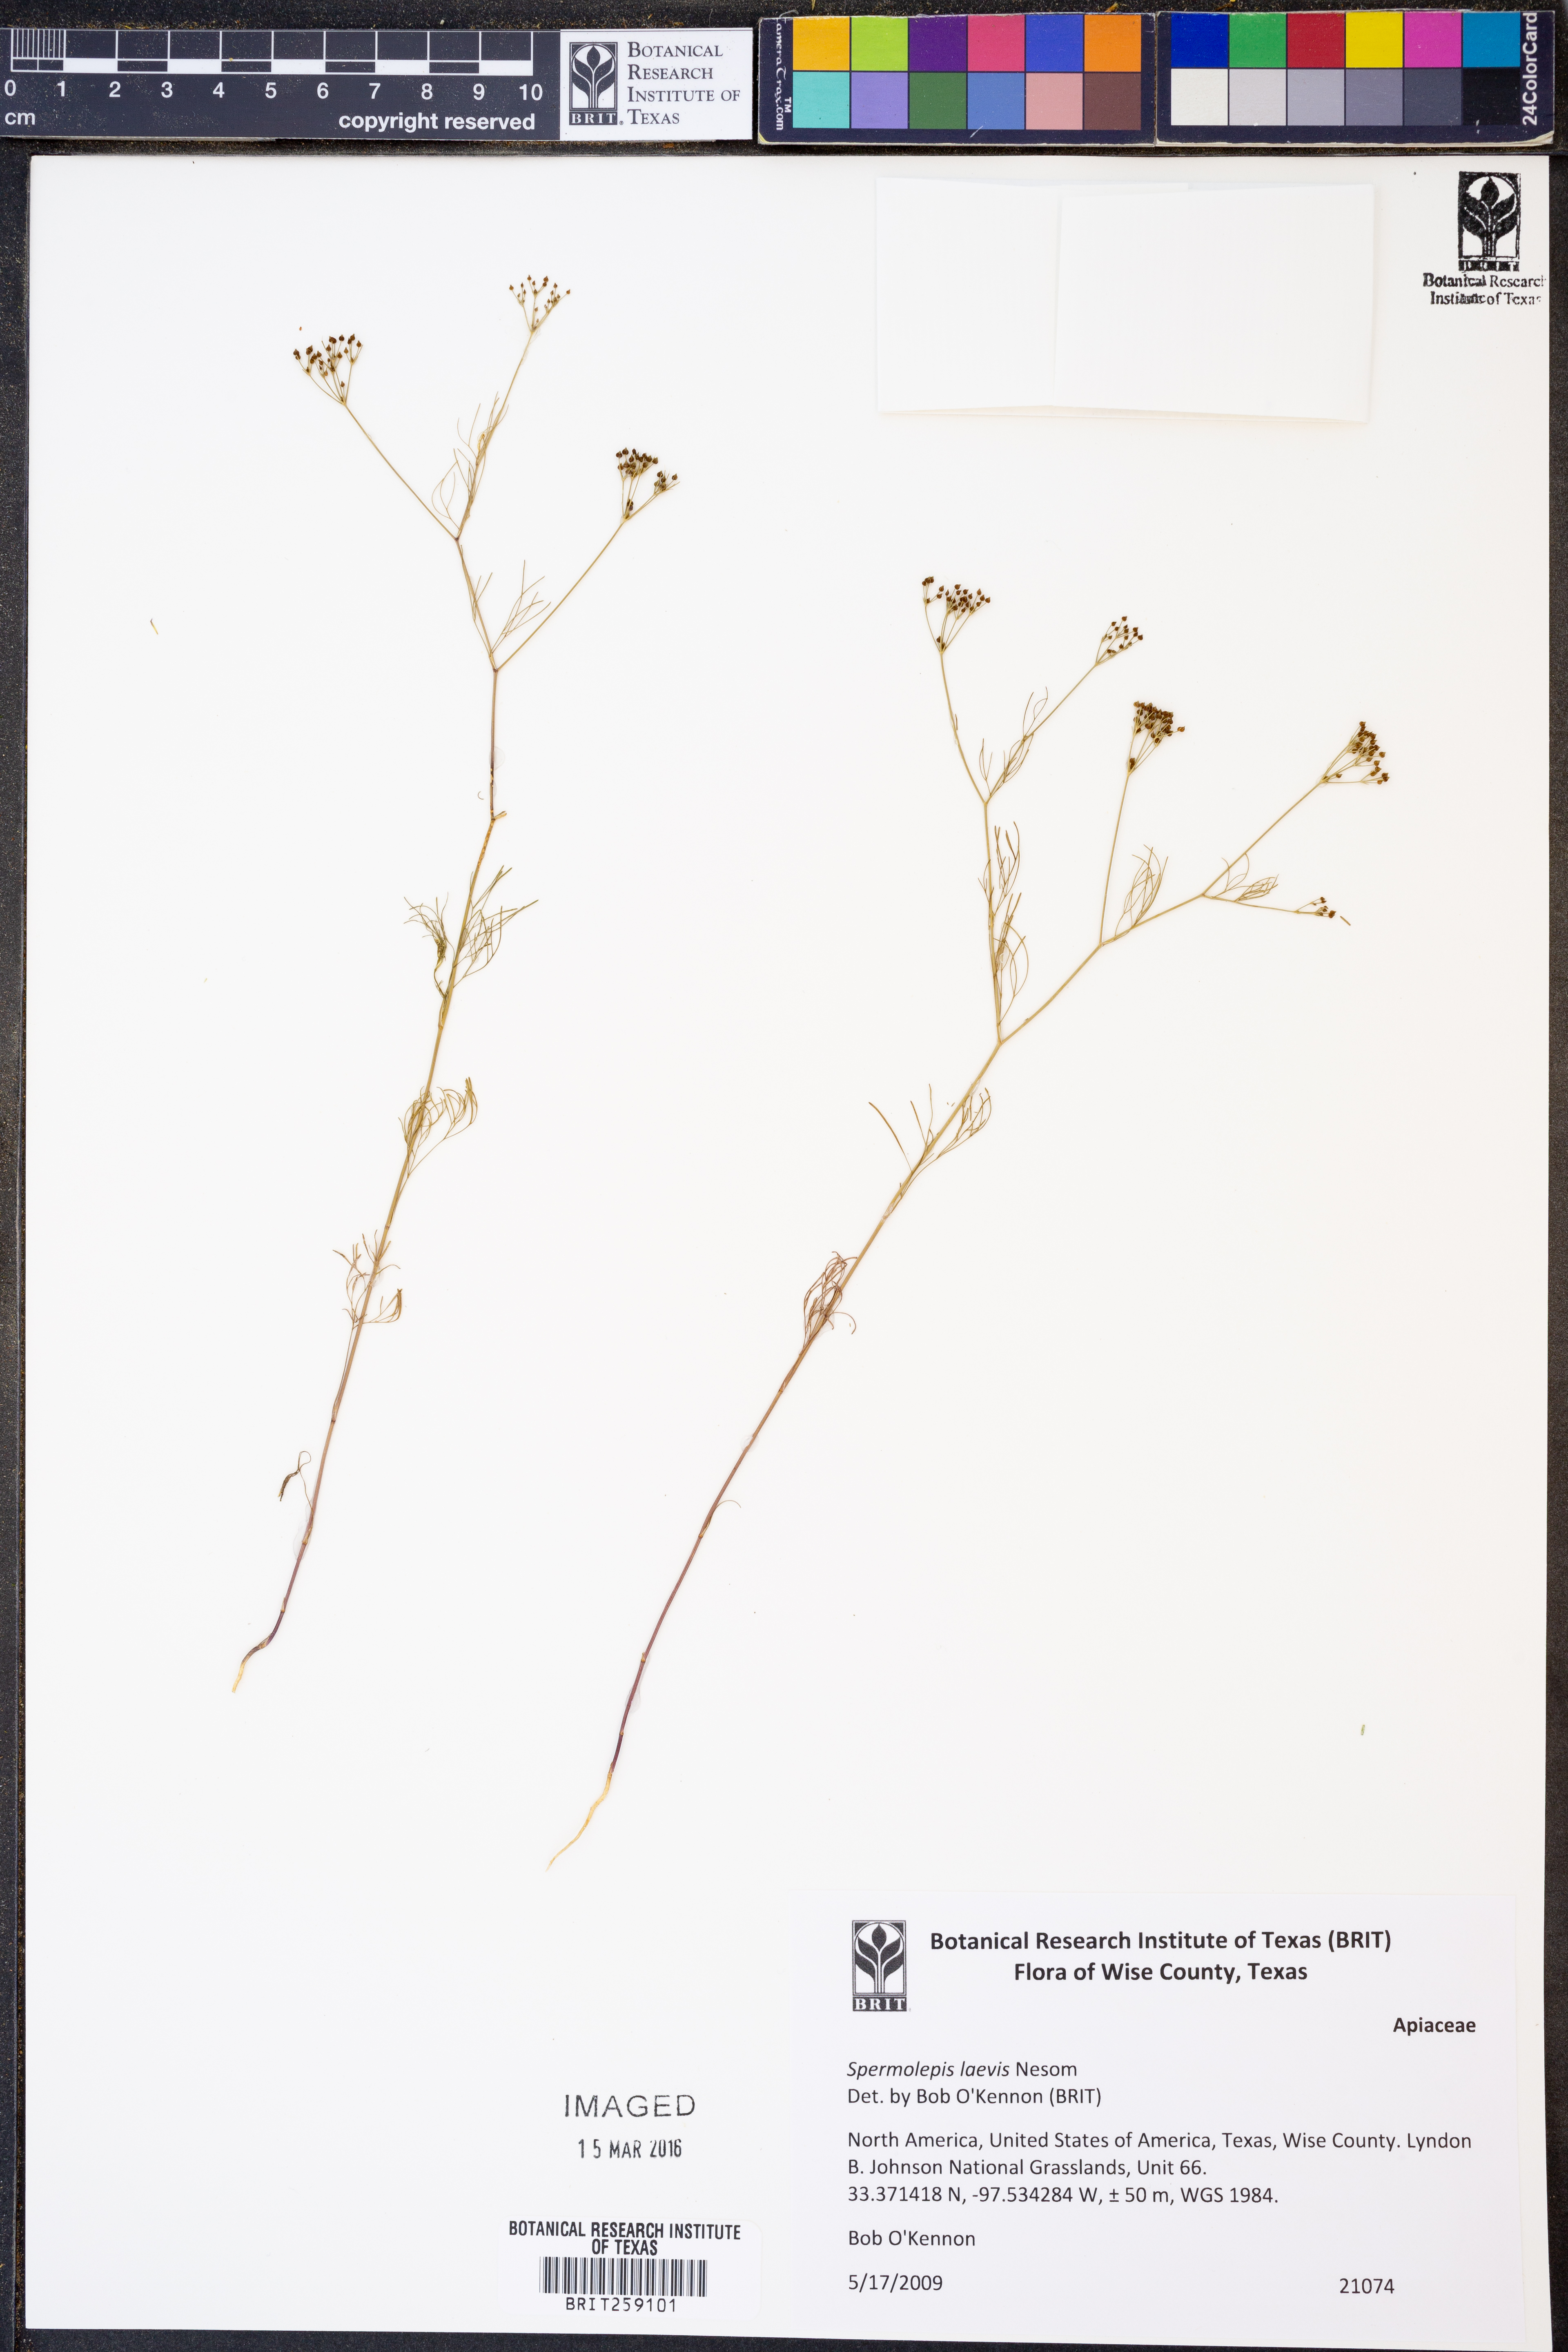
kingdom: Plantae
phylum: Tracheophyta
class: Magnoliopsida
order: Apiales
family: Apiaceae
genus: Spermolepis
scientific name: Spermolepis laevis
